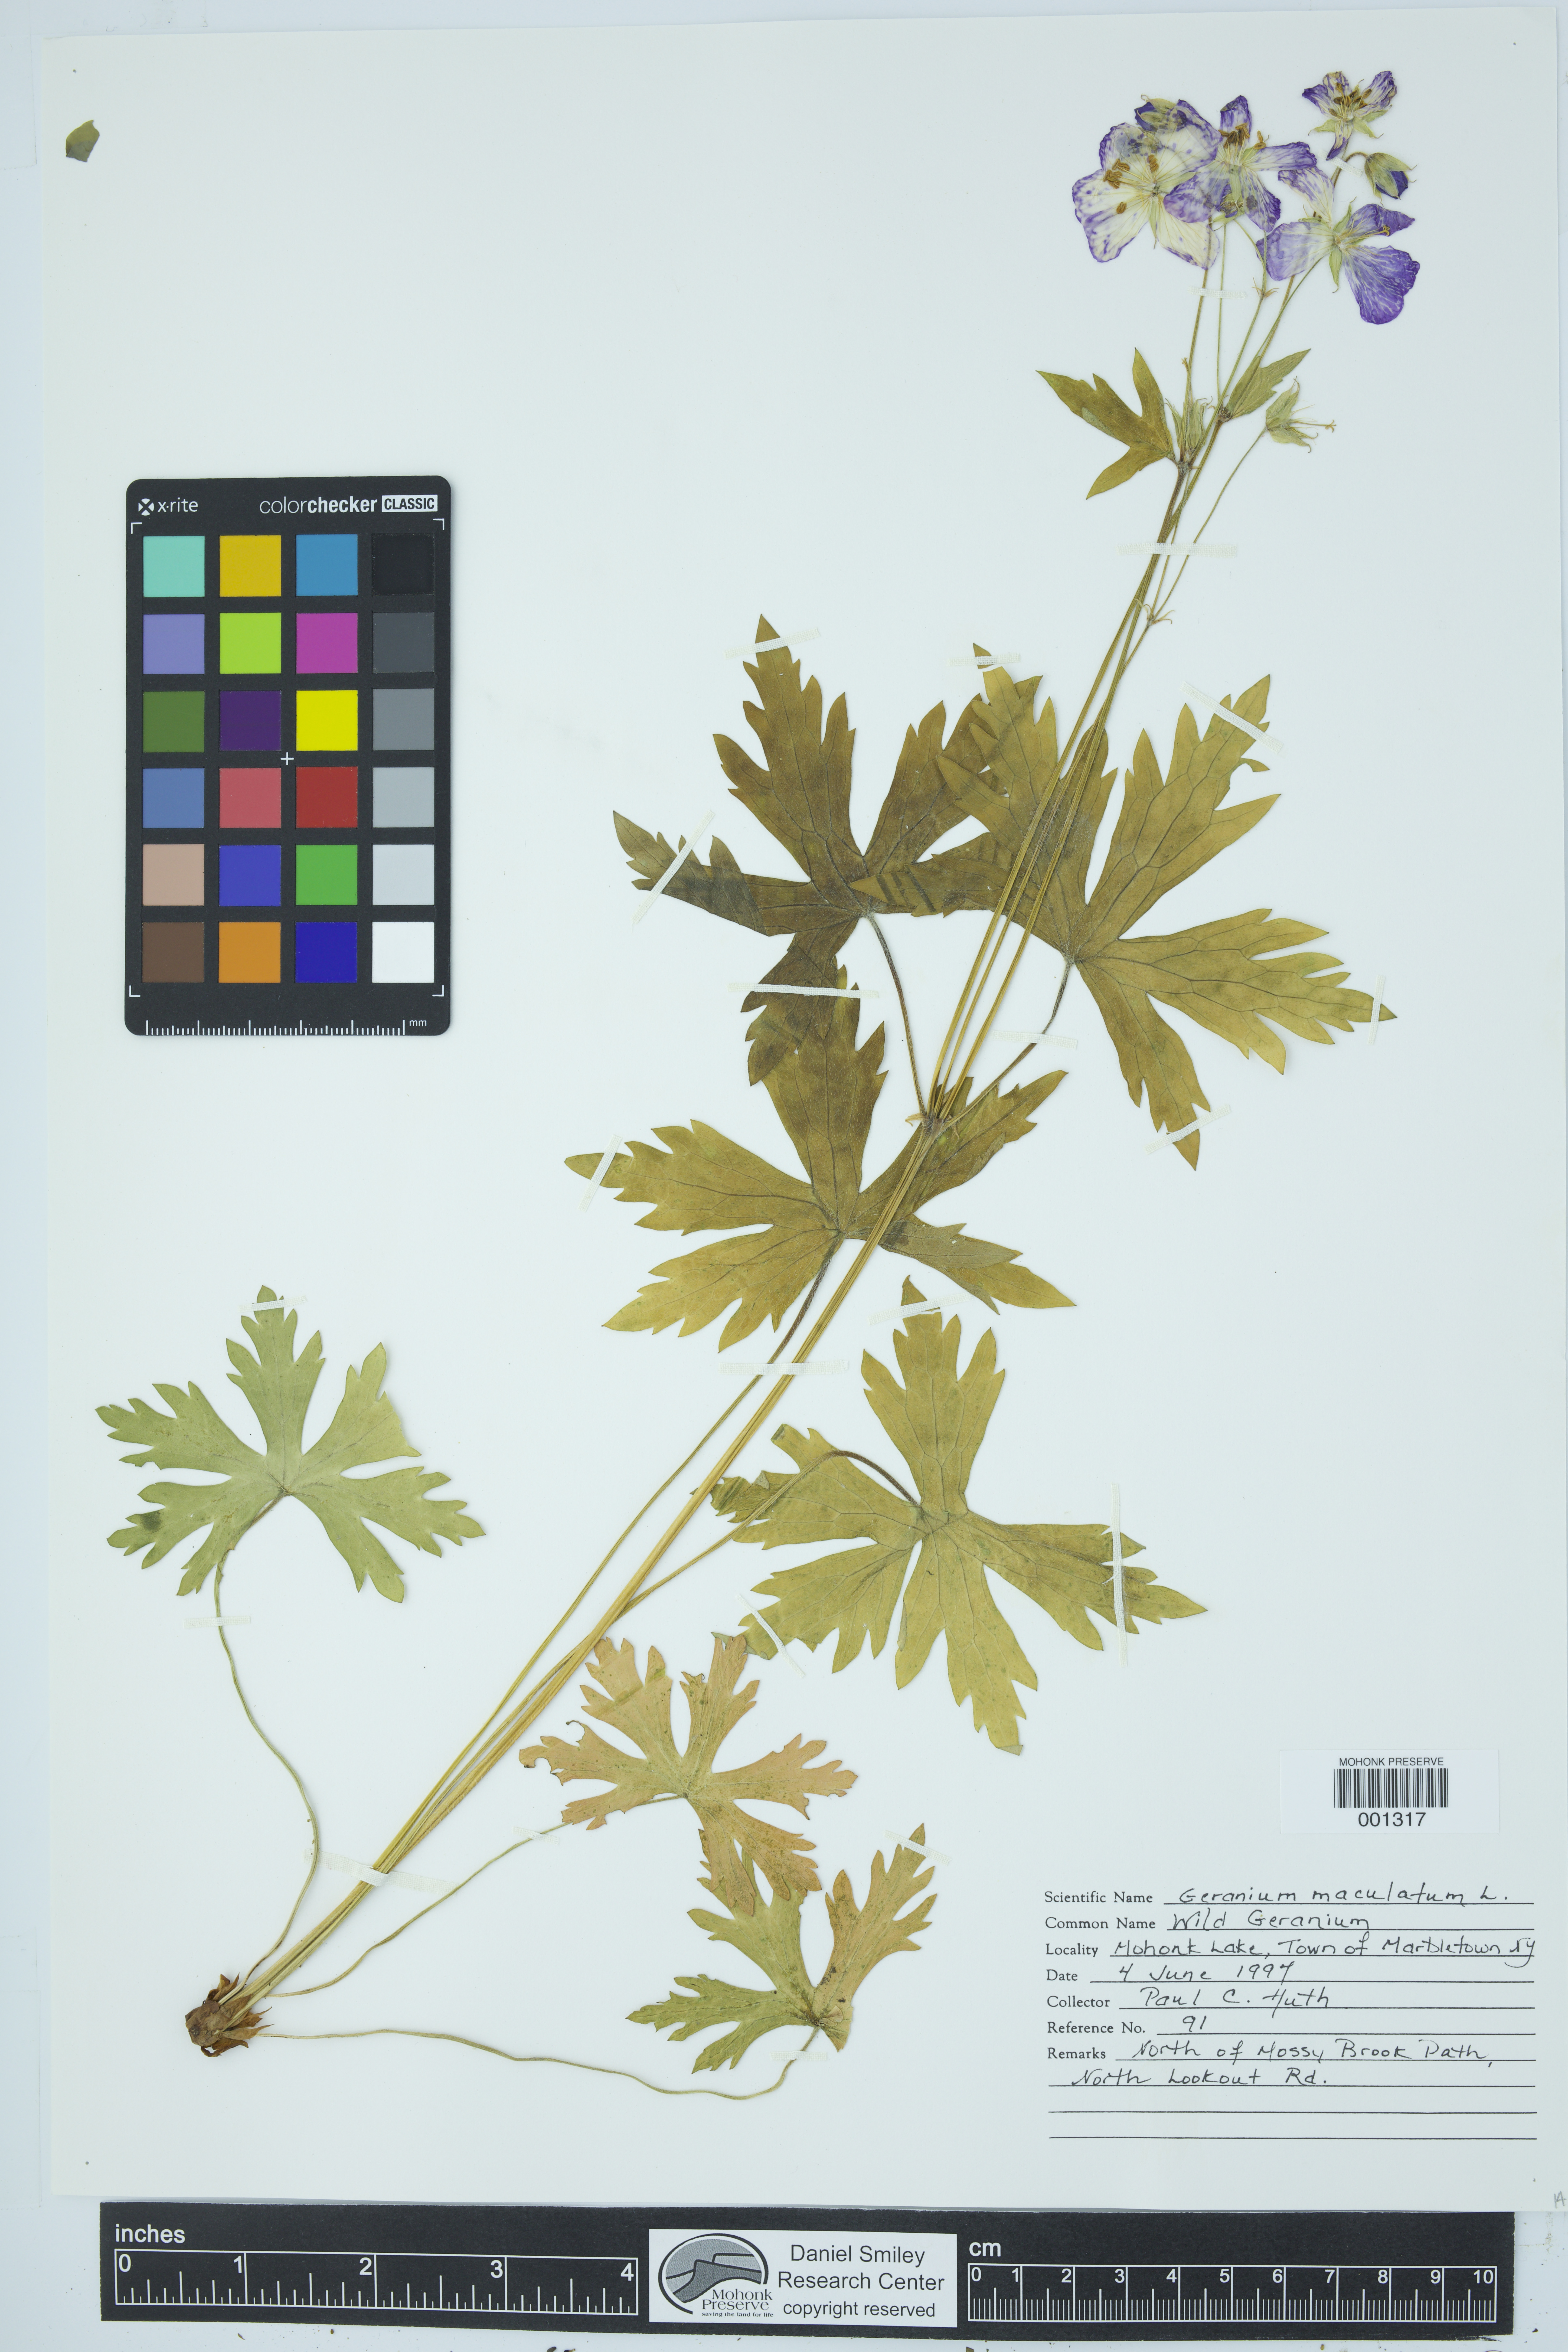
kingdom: Plantae
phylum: Tracheophyta
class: Magnoliopsida
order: Geraniales
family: Geraniaceae
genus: Geranium
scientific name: Geranium maculatum
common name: Spotted geranium
